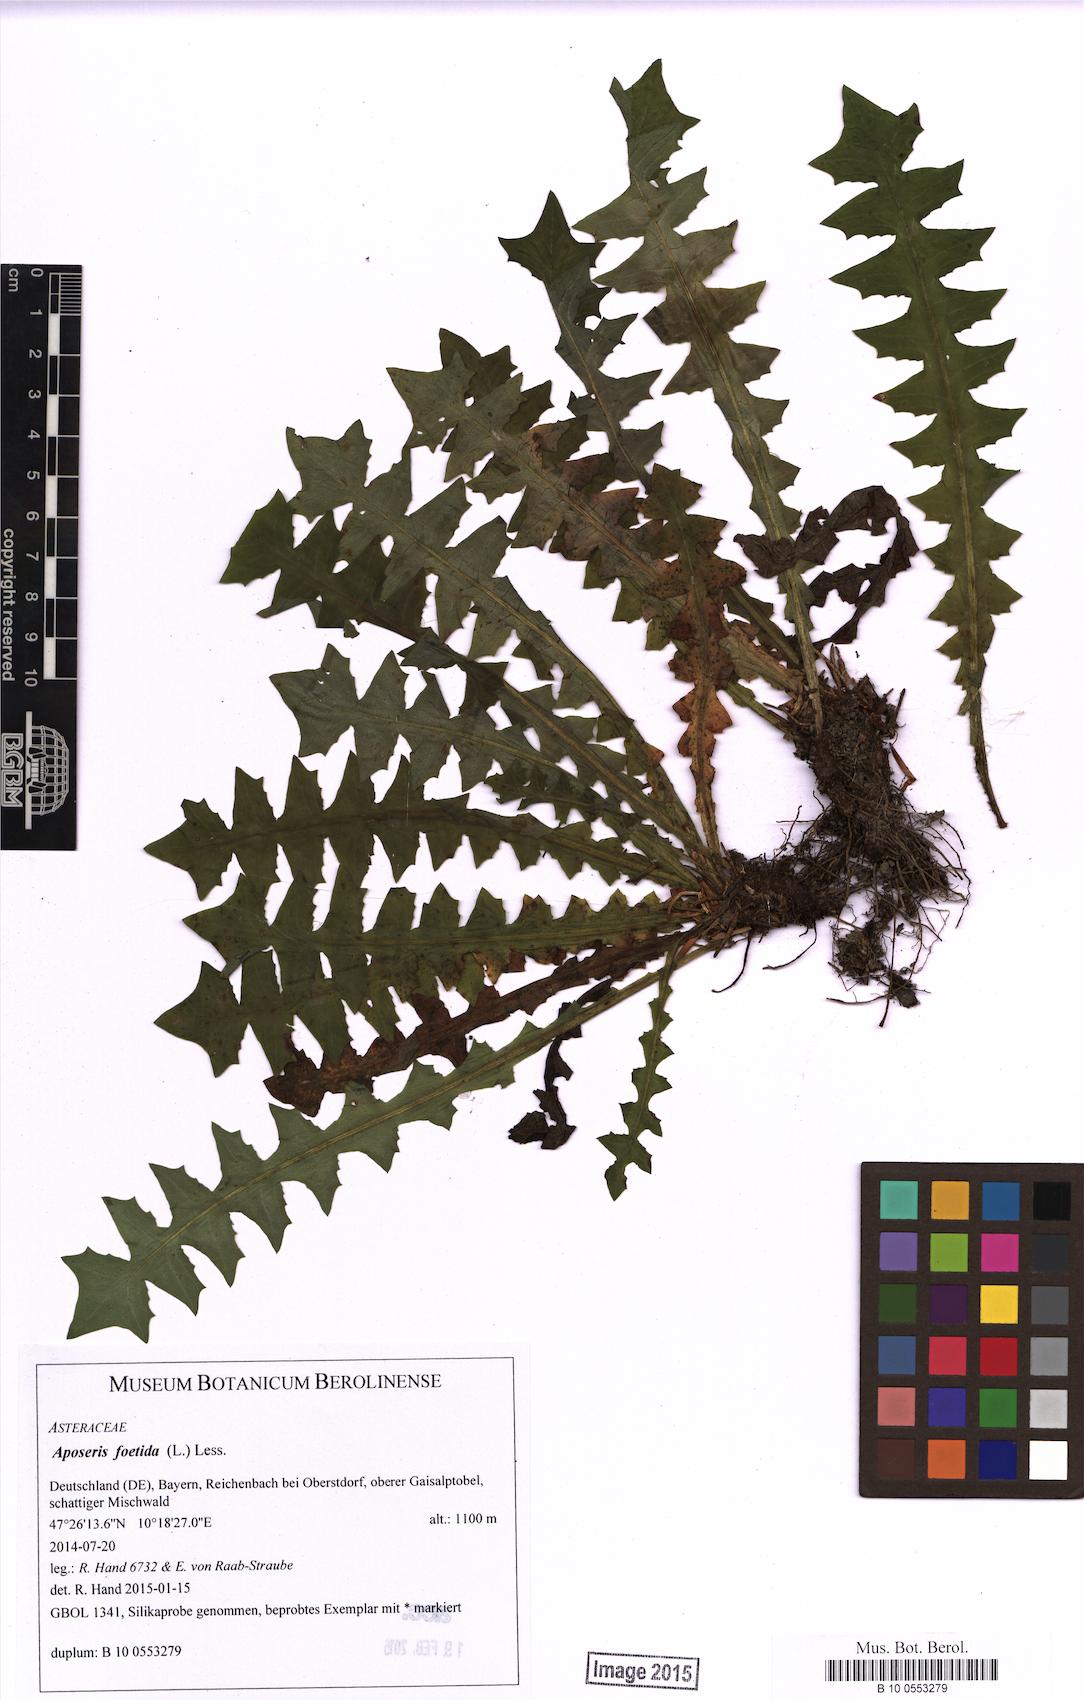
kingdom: Plantae
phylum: Tracheophyta
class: Magnoliopsida
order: Asterales
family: Asteraceae
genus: Aposeris
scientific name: Aposeris foetida
